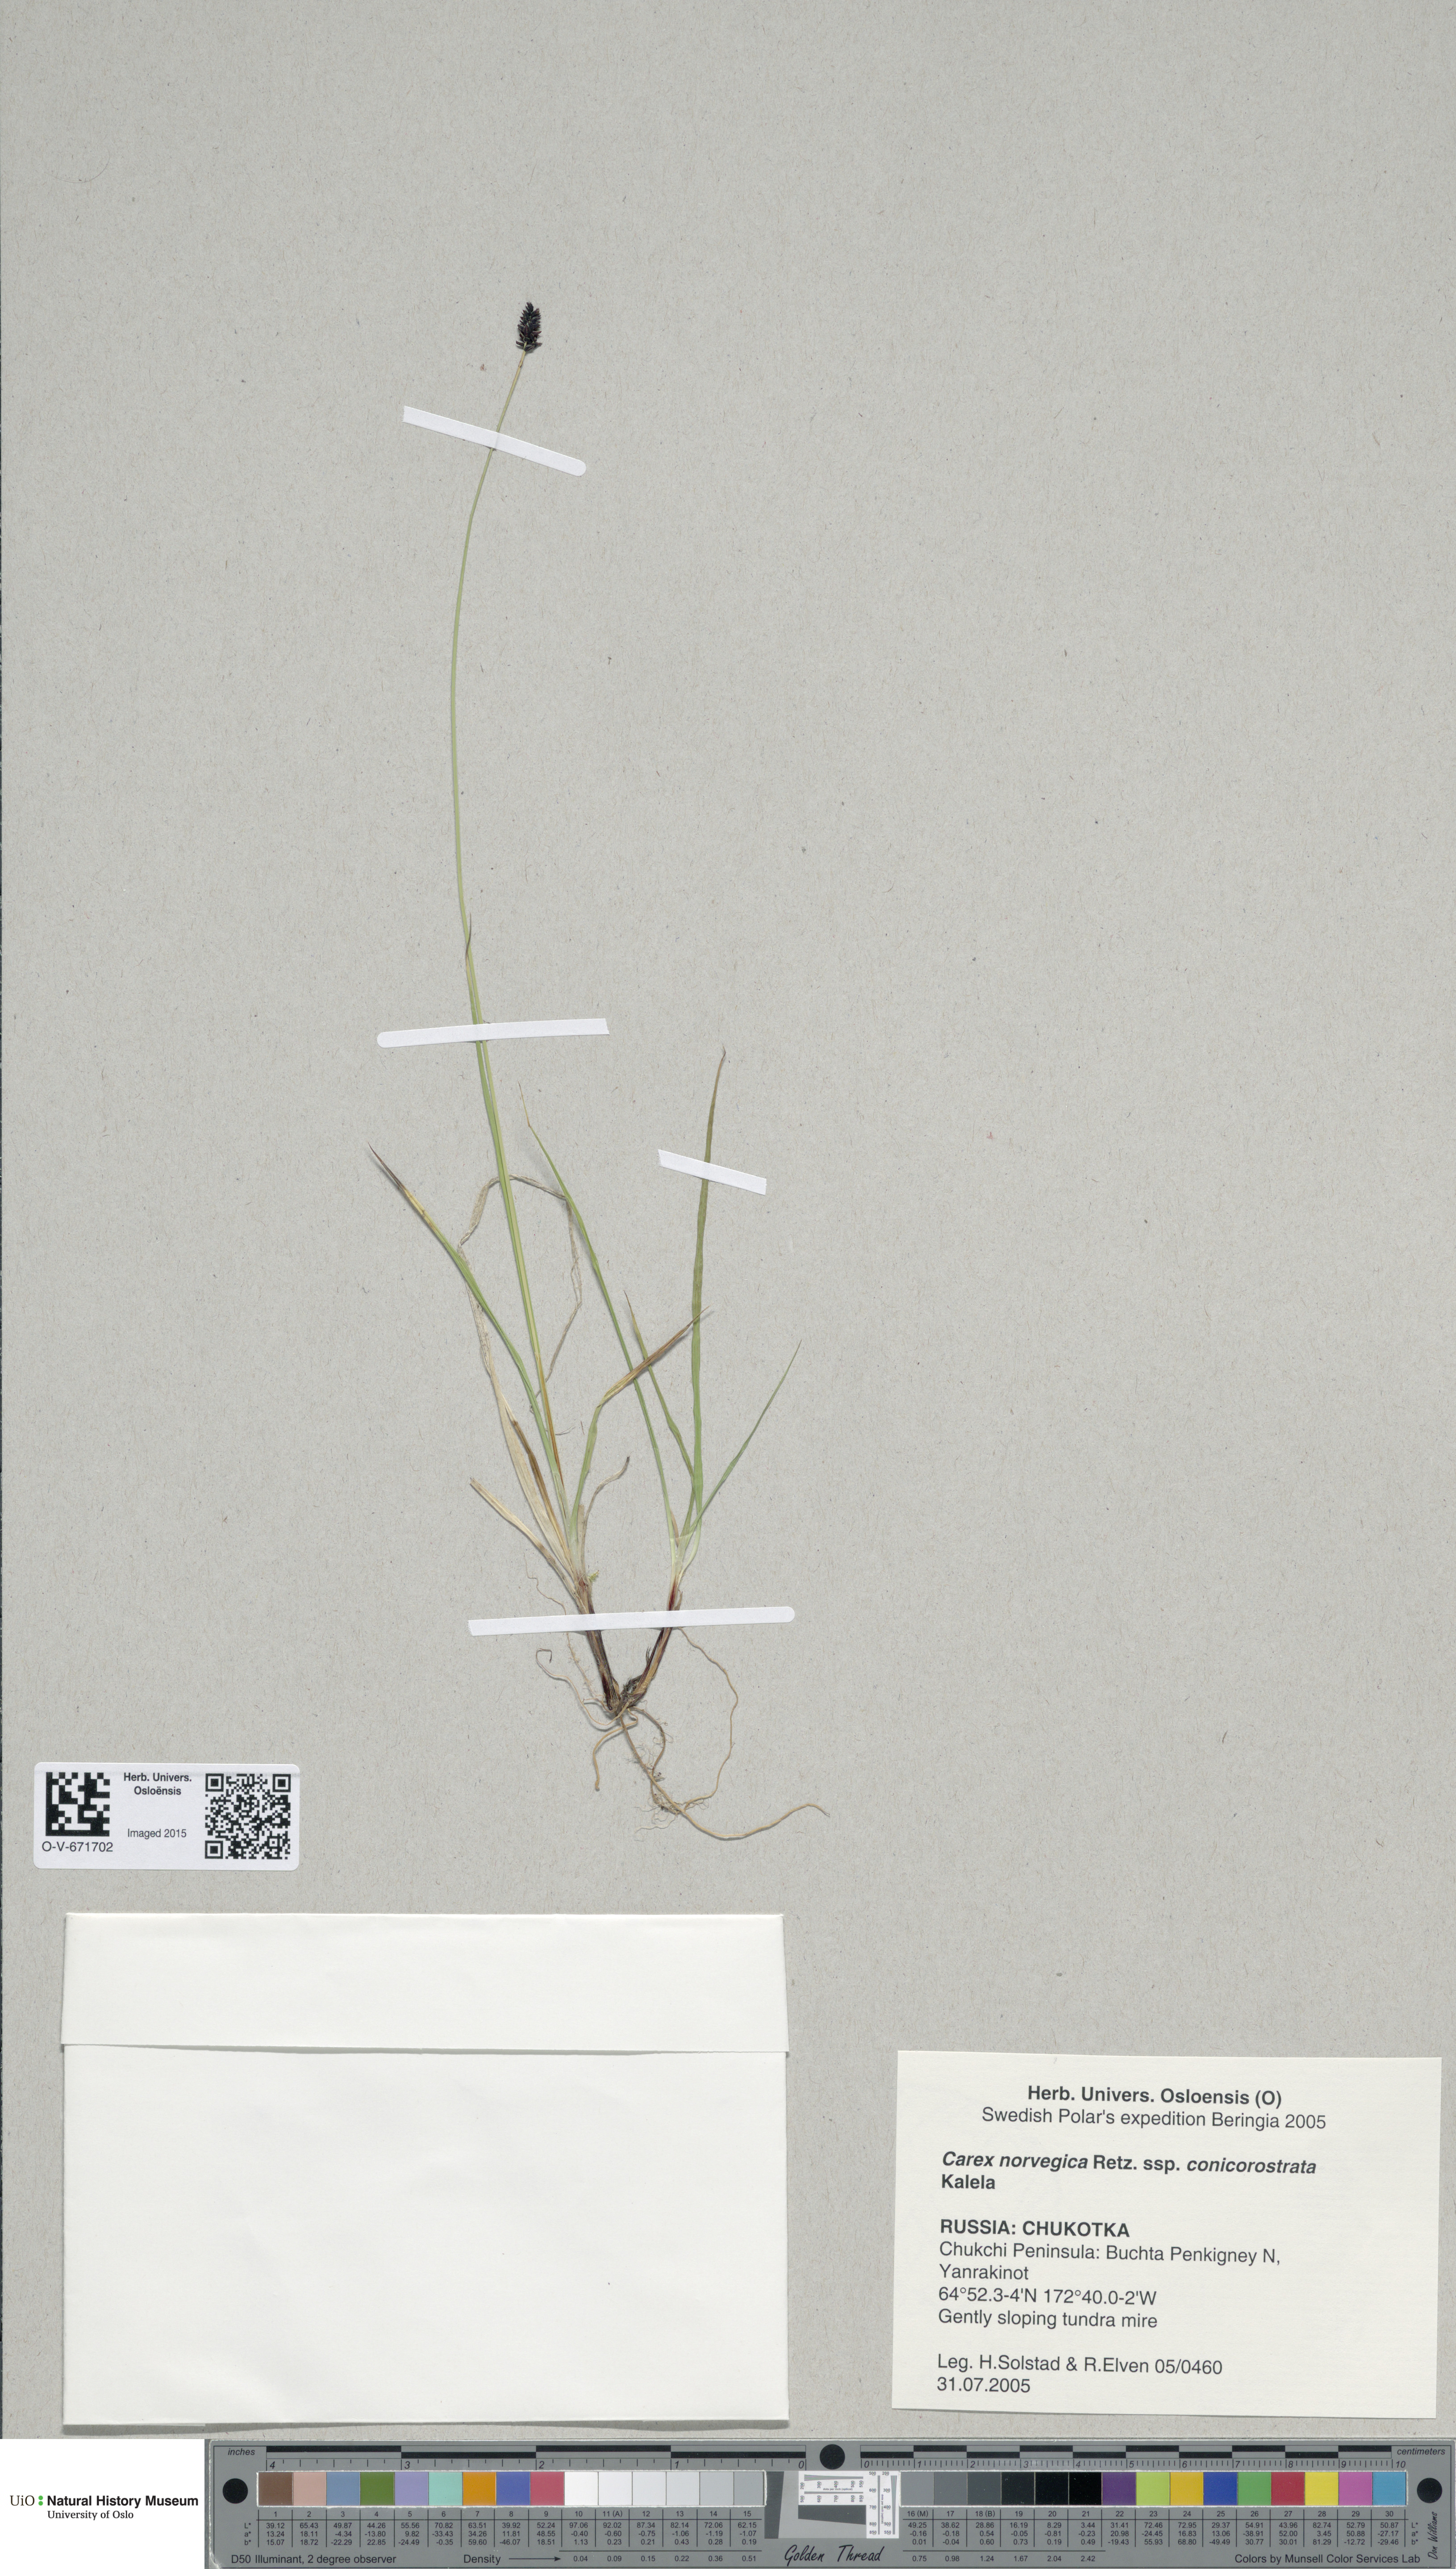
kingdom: Plantae
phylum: Tracheophyta
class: Liliopsida
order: Poales
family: Cyperaceae
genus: Carex
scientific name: Carex norvegica
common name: Close-headed alpine-sedge
